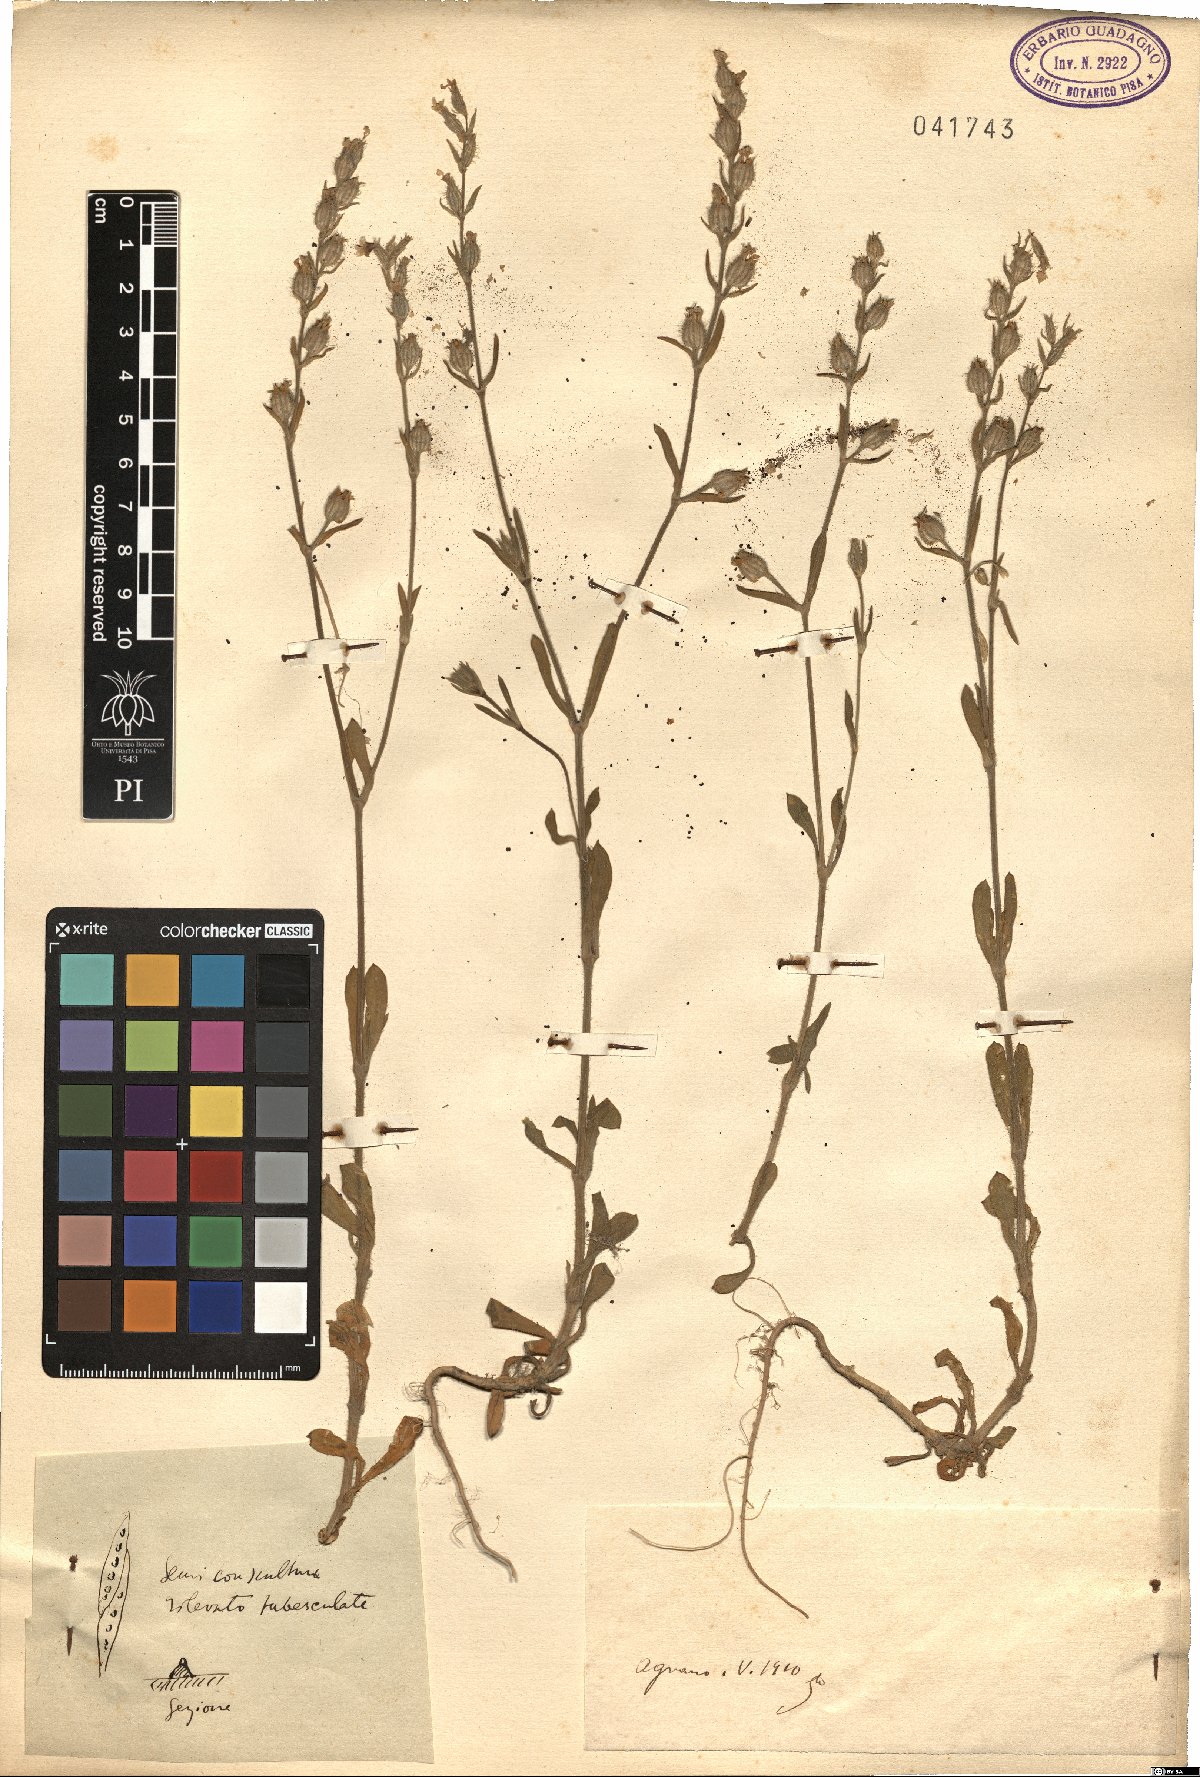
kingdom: Plantae
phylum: Tracheophyta
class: Magnoliopsida
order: Caryophyllales
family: Caryophyllaceae
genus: Silene
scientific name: Silene
